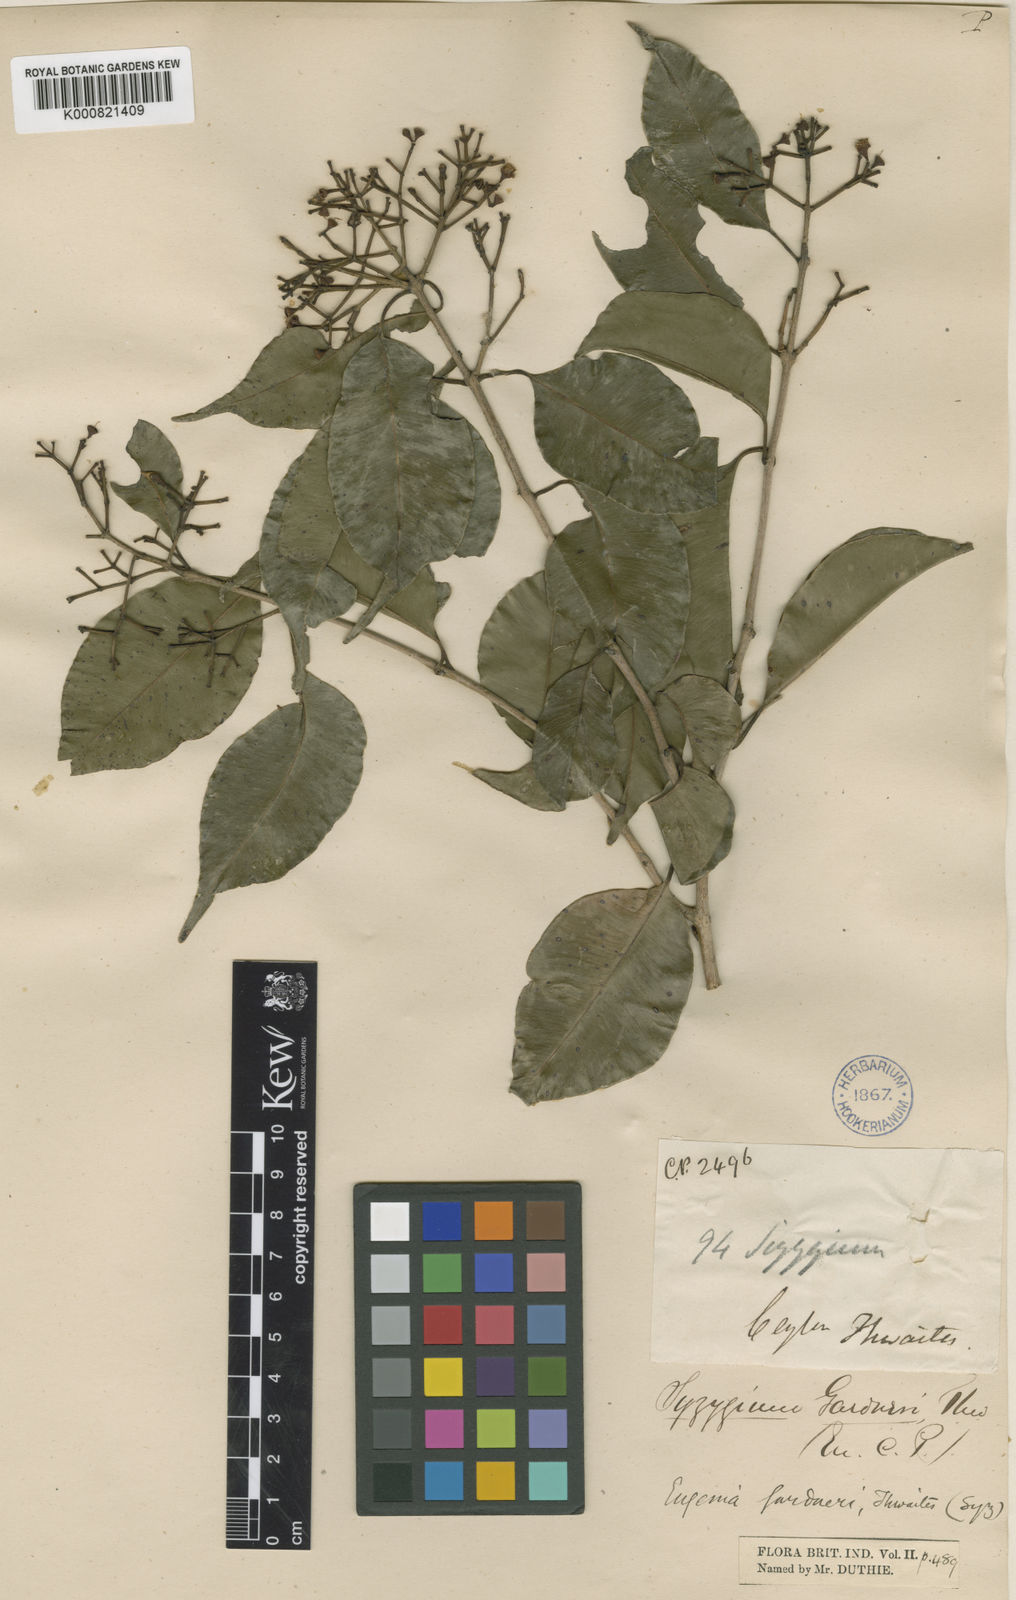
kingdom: Plantae
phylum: Tracheophyta
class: Magnoliopsida
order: Myrtales
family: Myrtaceae
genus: Syzygium
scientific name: Syzygium gardneri
